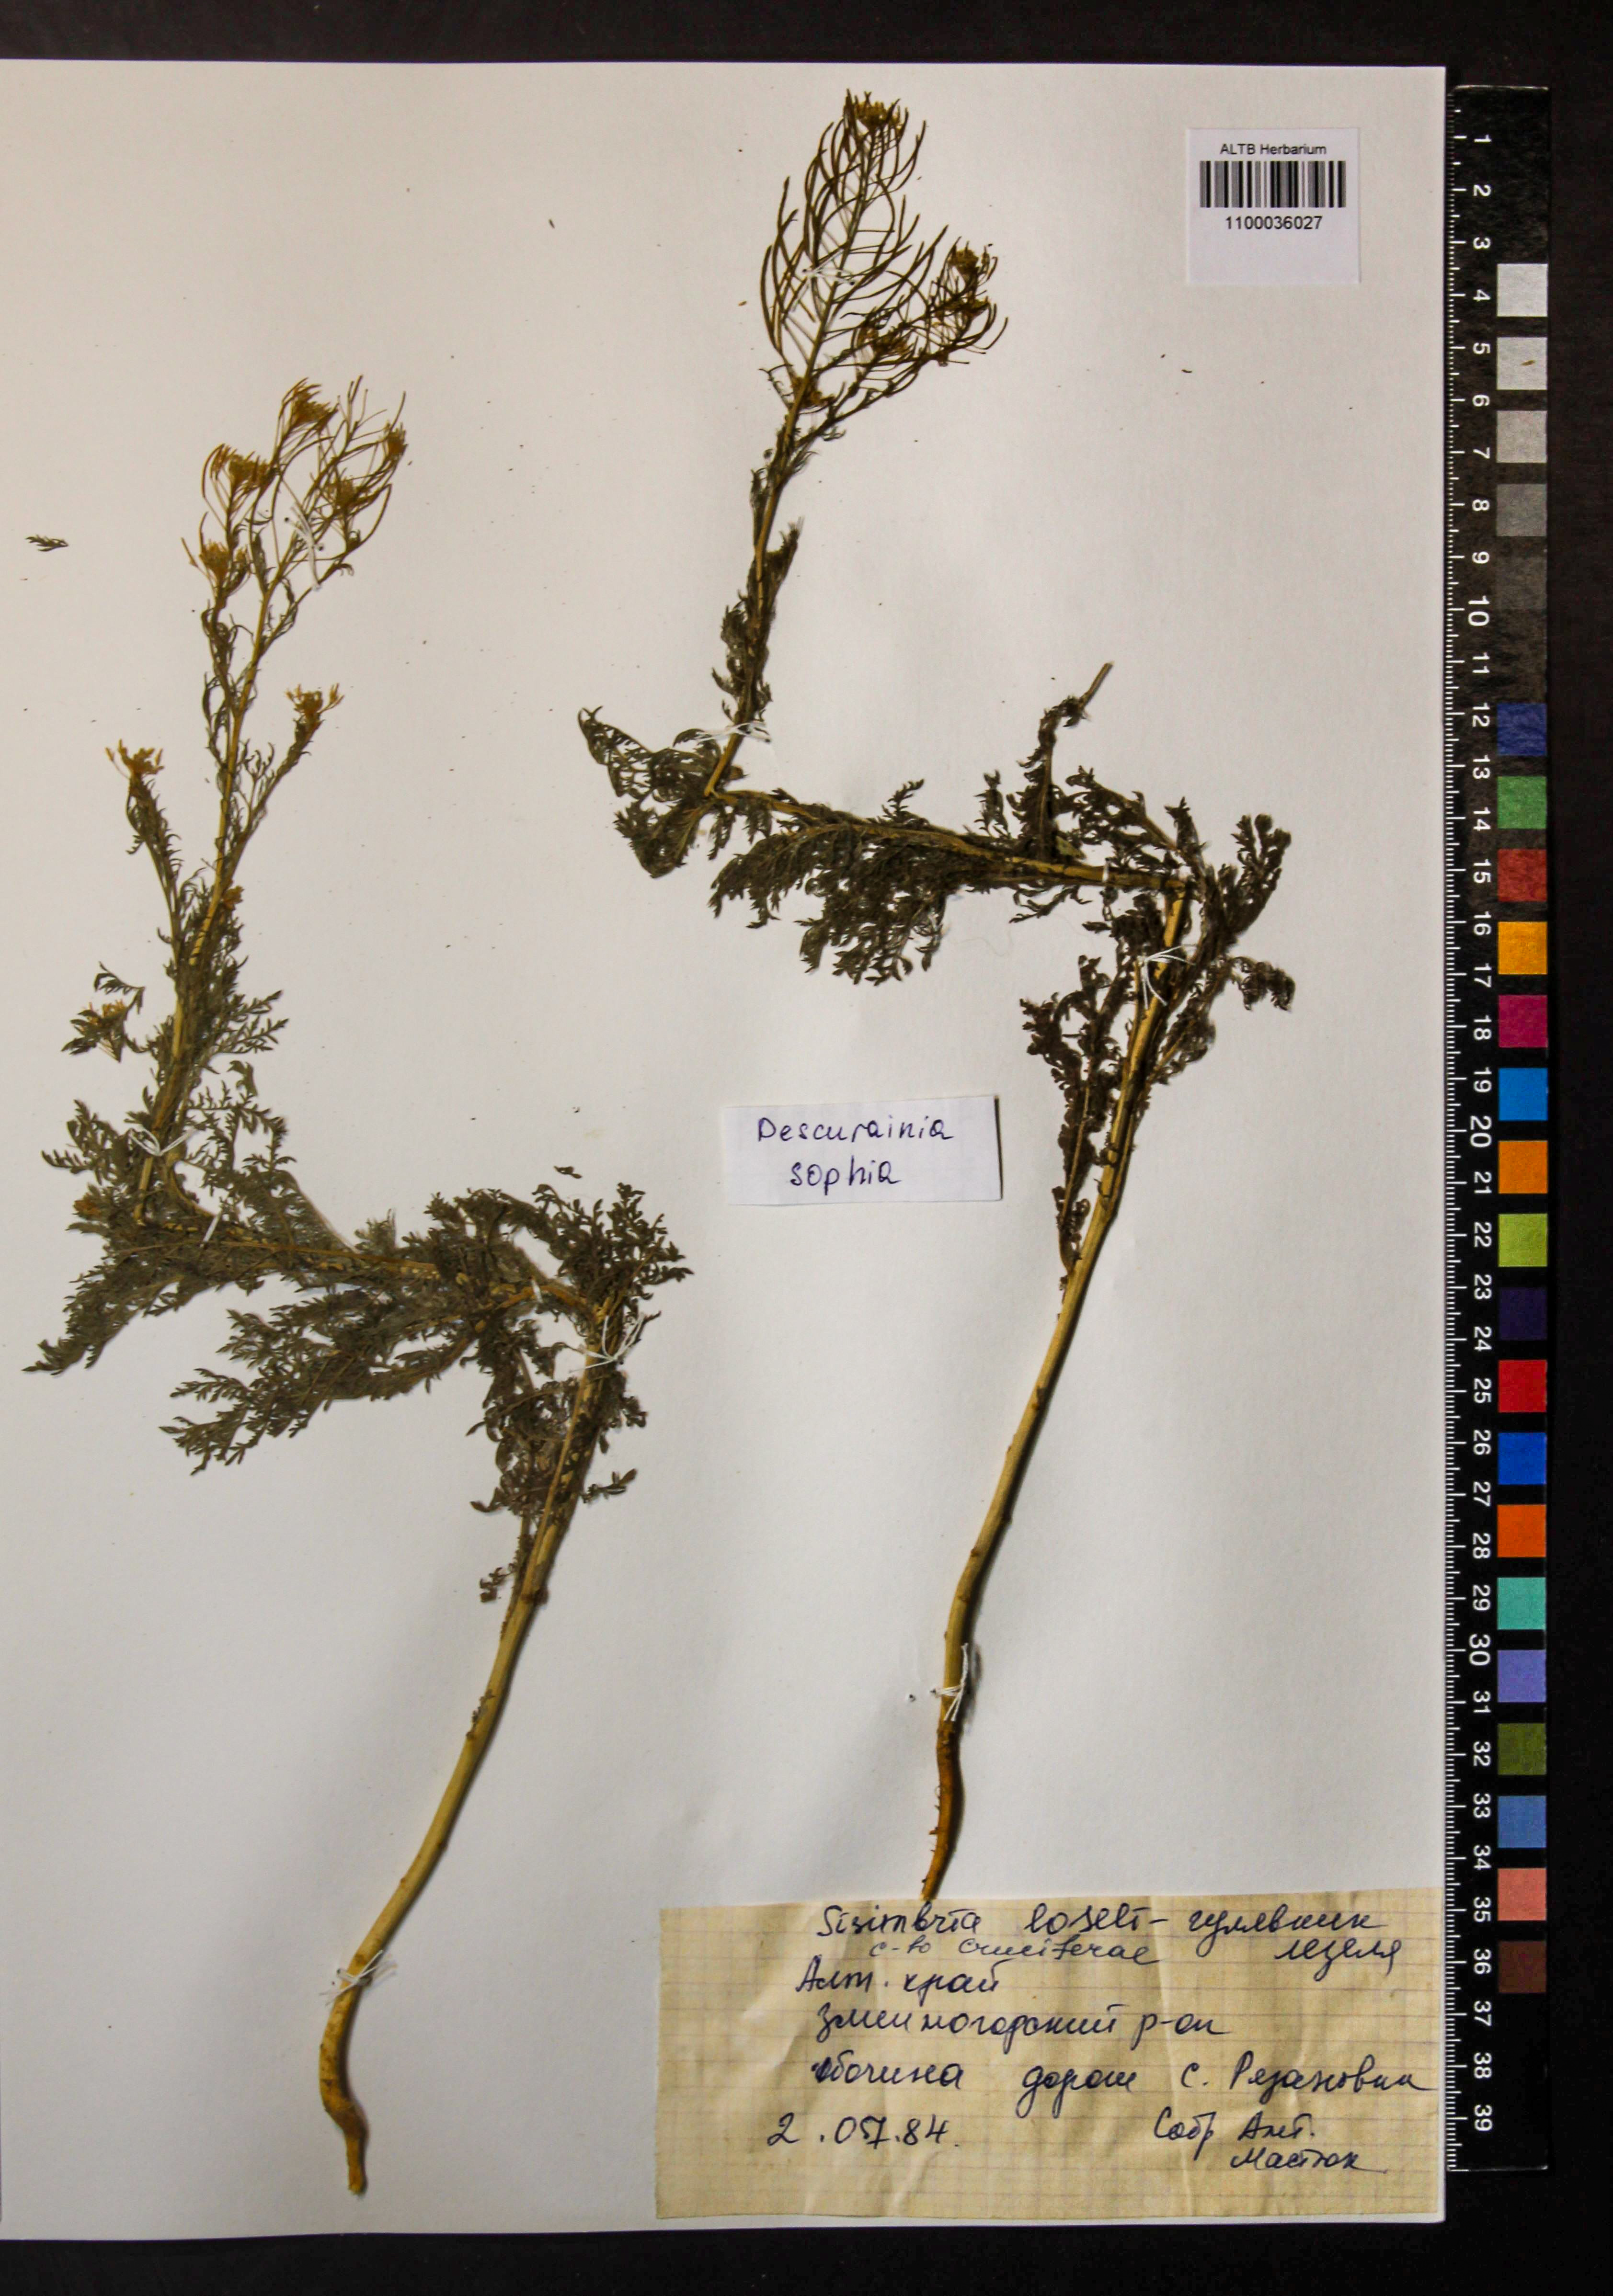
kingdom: Plantae
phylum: Tracheophyta
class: Magnoliopsida
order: Brassicales
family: Brassicaceae
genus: Descurainia
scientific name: Descurainia sophia
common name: Flixweed
